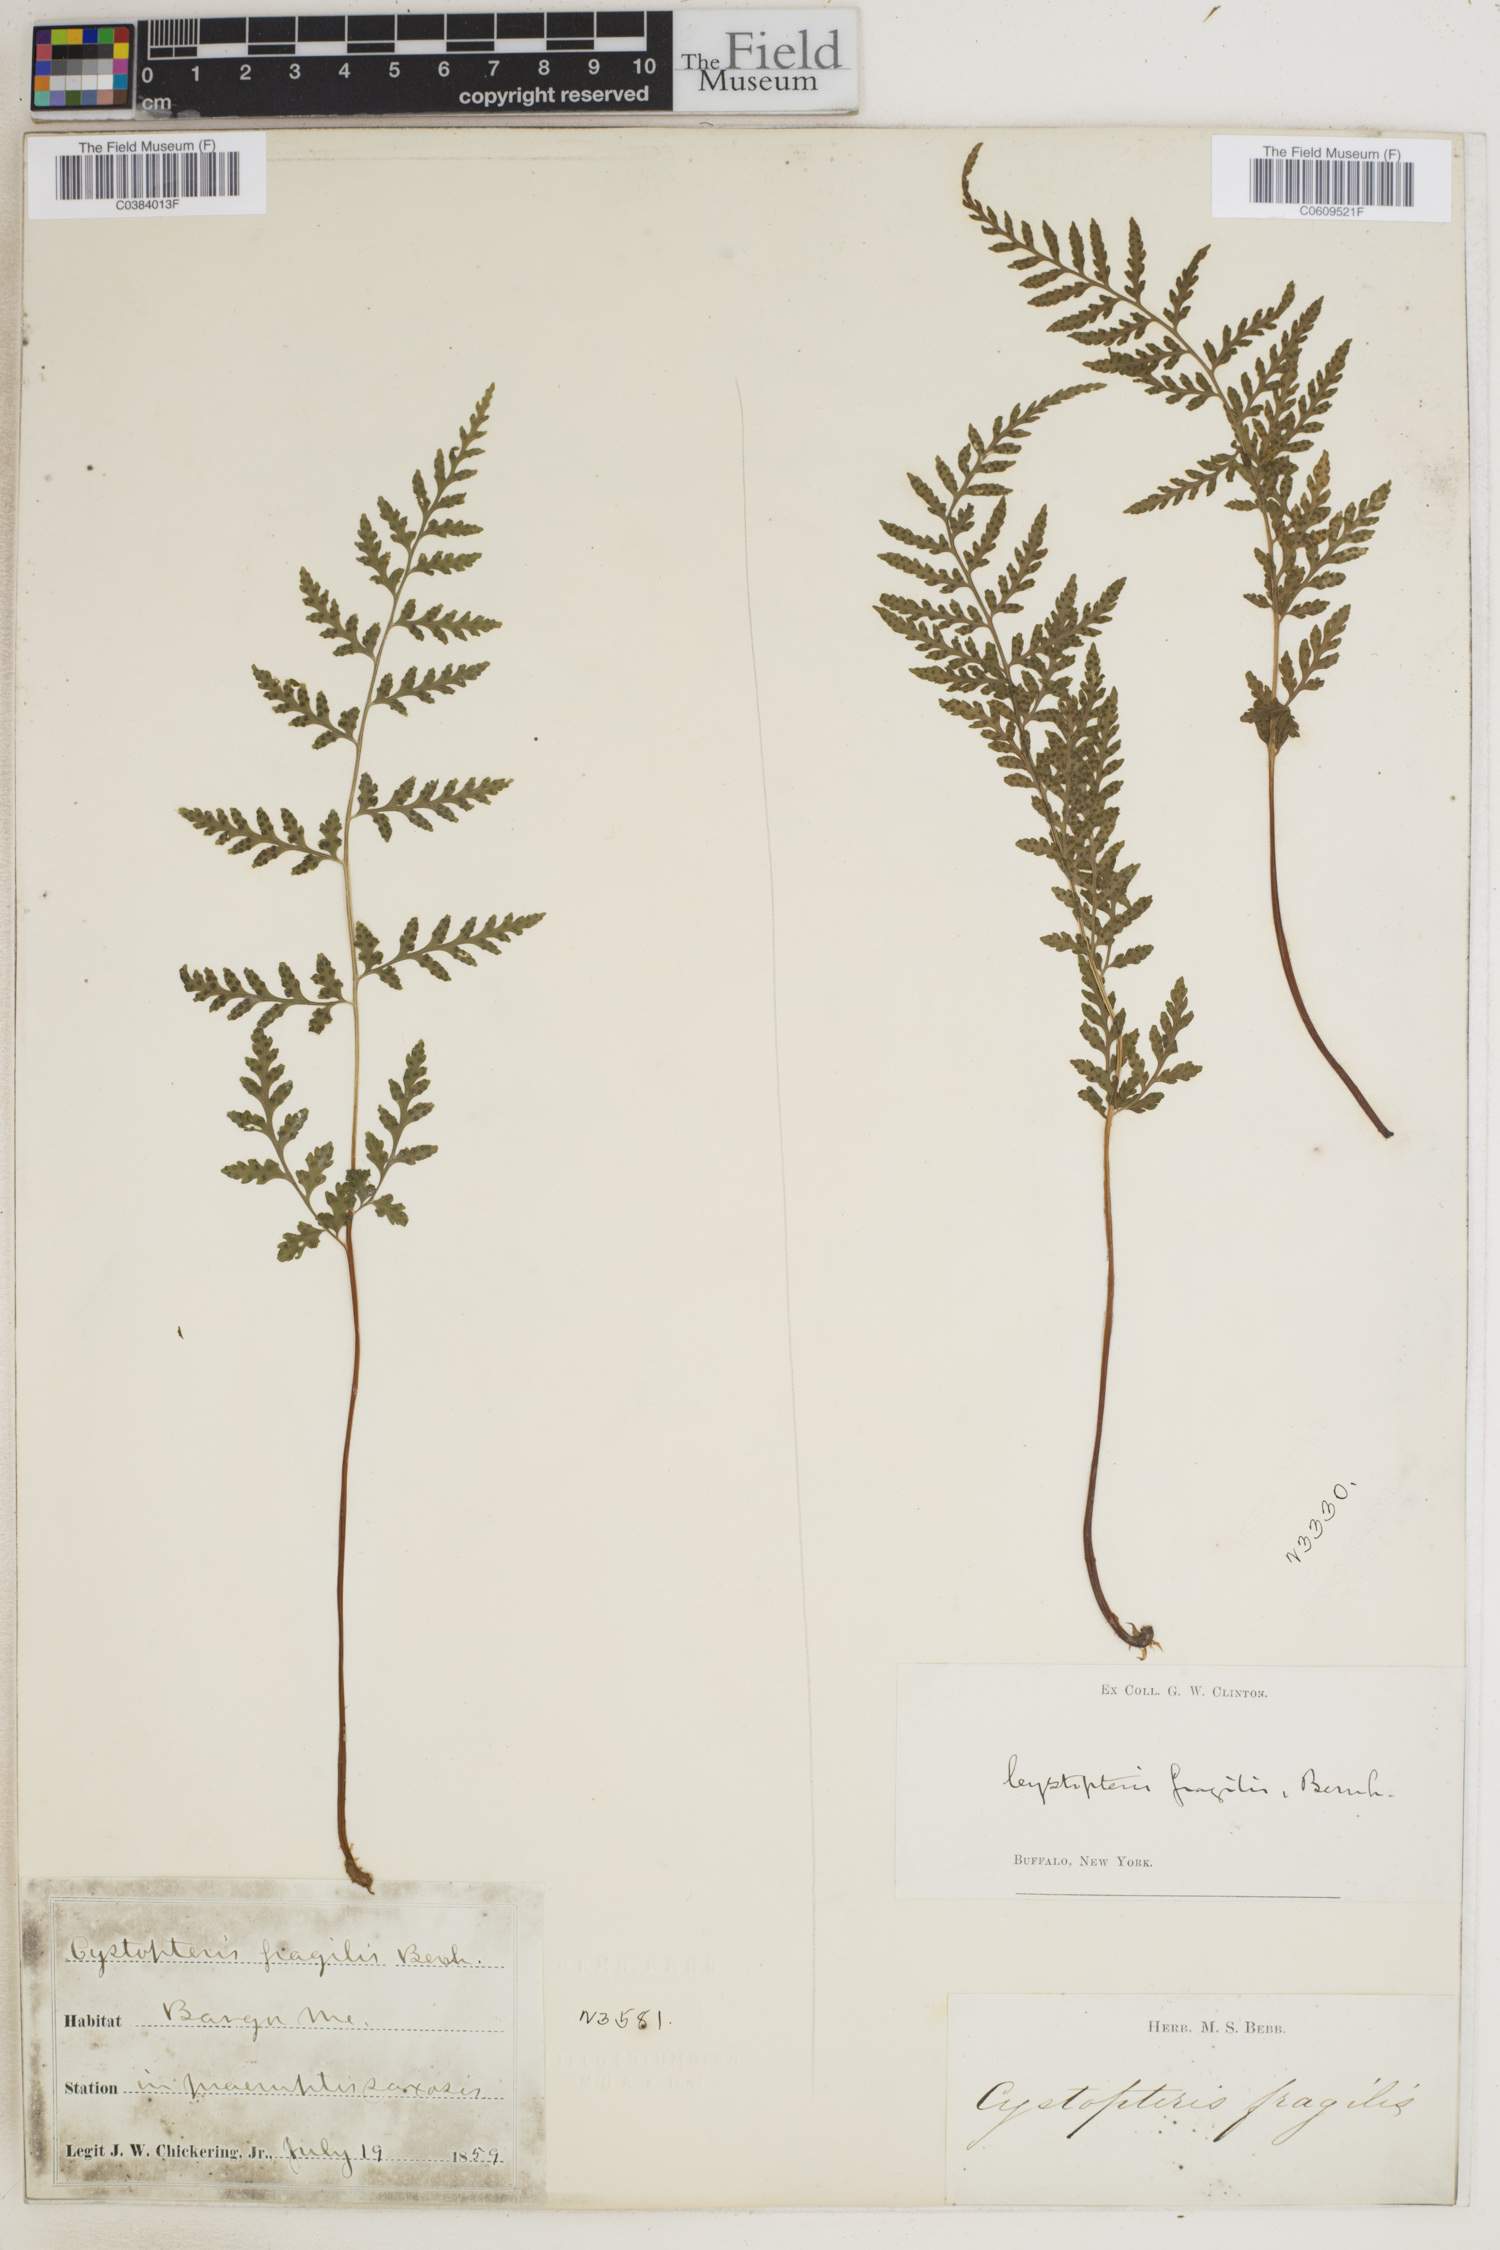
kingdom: Plantae
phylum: Tracheophyta
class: Polypodiopsida
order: Polypodiales
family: Cystopteridaceae
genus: Cystopteris
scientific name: Cystopteris fragilis
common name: Brittle bladder fern
